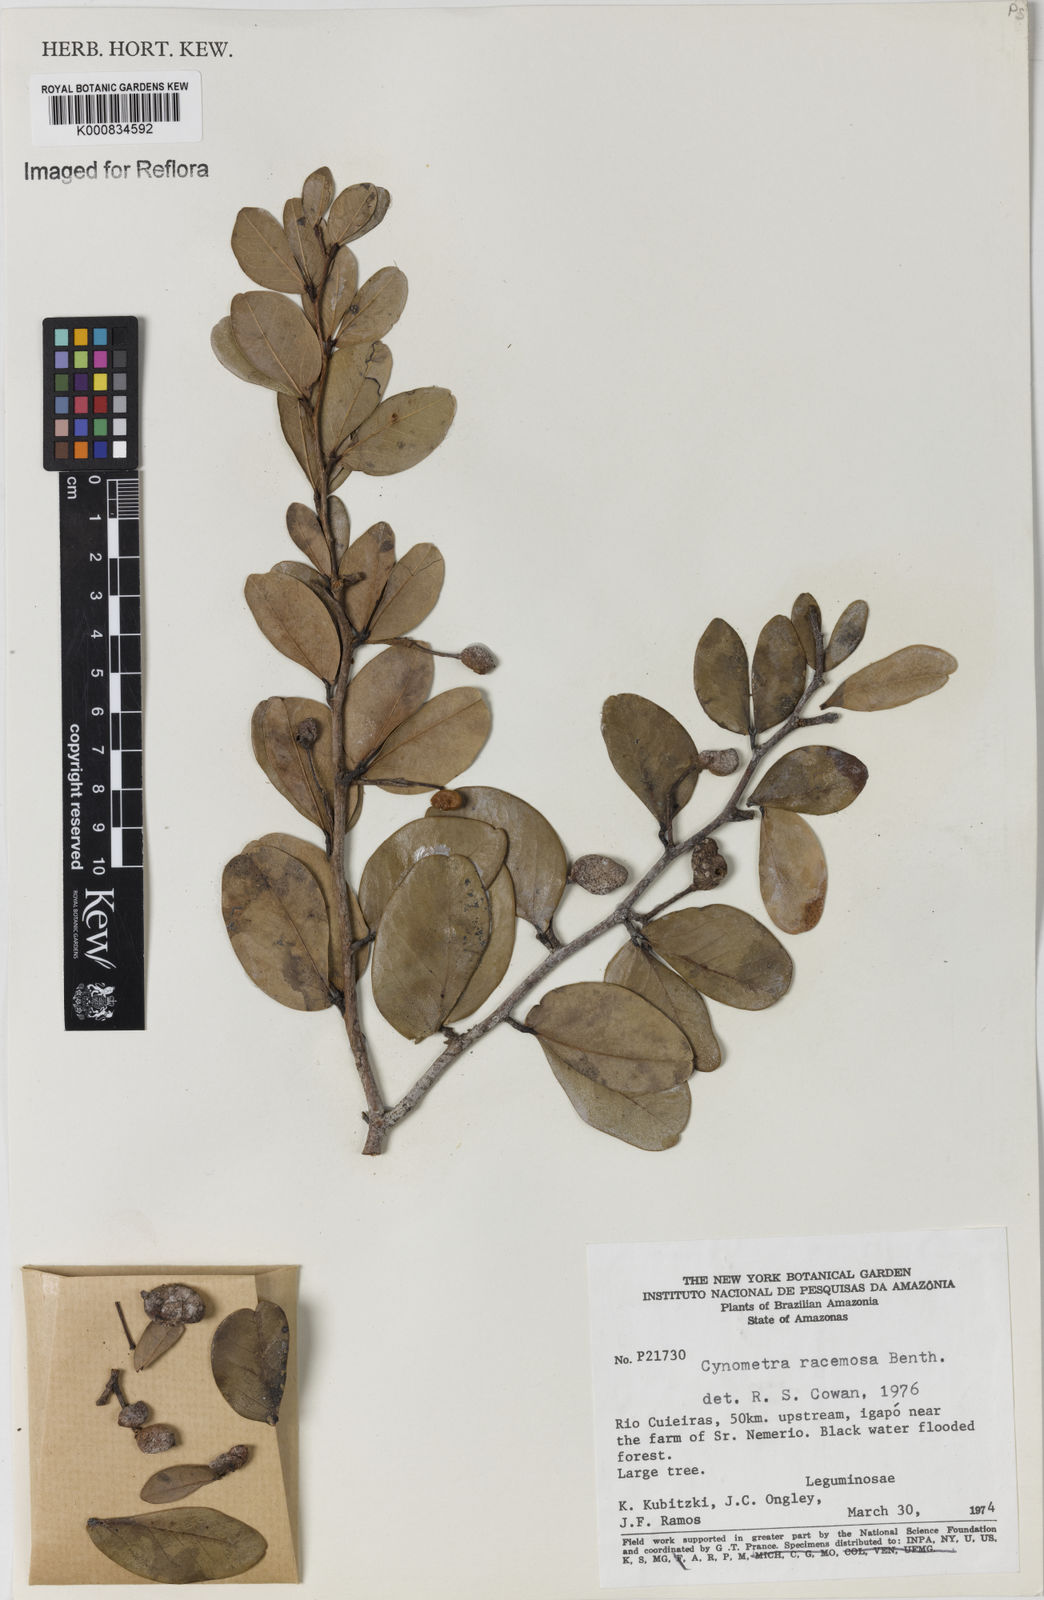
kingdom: Plantae
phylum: Tracheophyta
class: Magnoliopsida
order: Fabales
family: Fabaceae
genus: Cynometra
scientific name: Cynometra phaselocarpa
